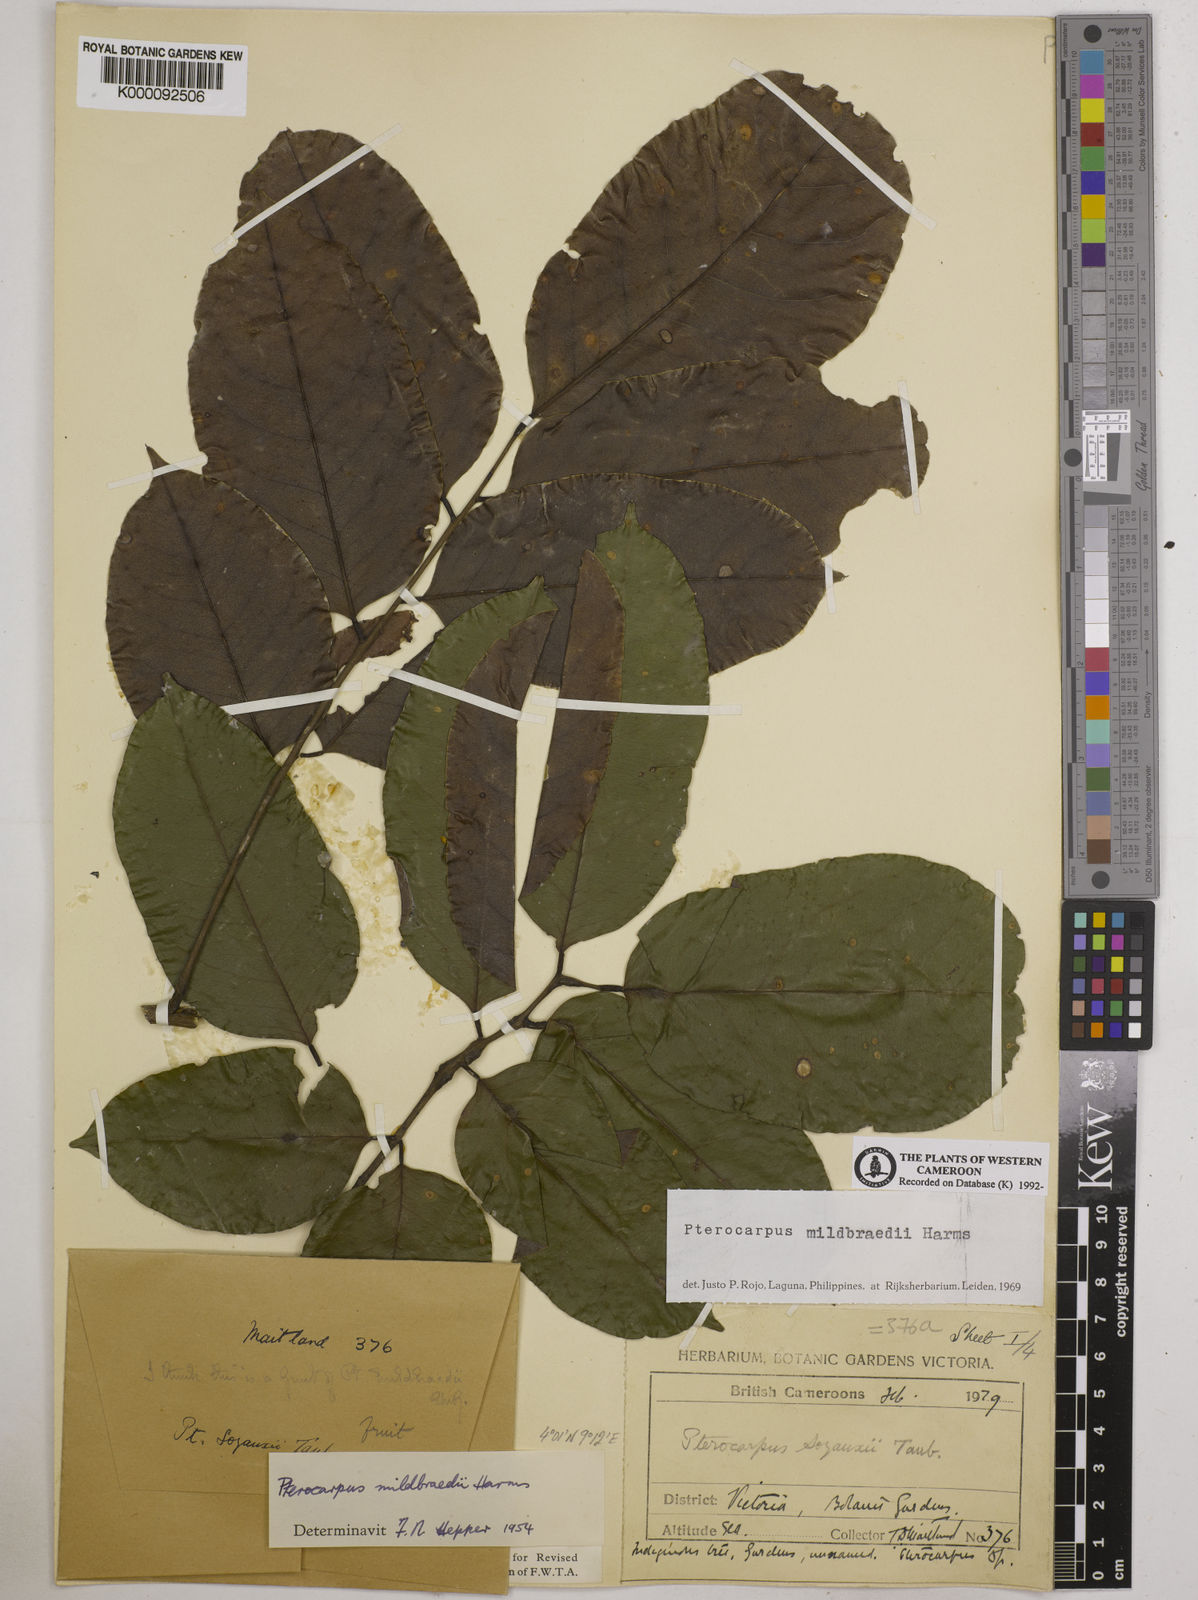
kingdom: Plantae
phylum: Tracheophyta
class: Magnoliopsida
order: Fabales
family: Fabaceae
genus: Pterocarpus
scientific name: Pterocarpus mildbraedii
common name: White padouk
